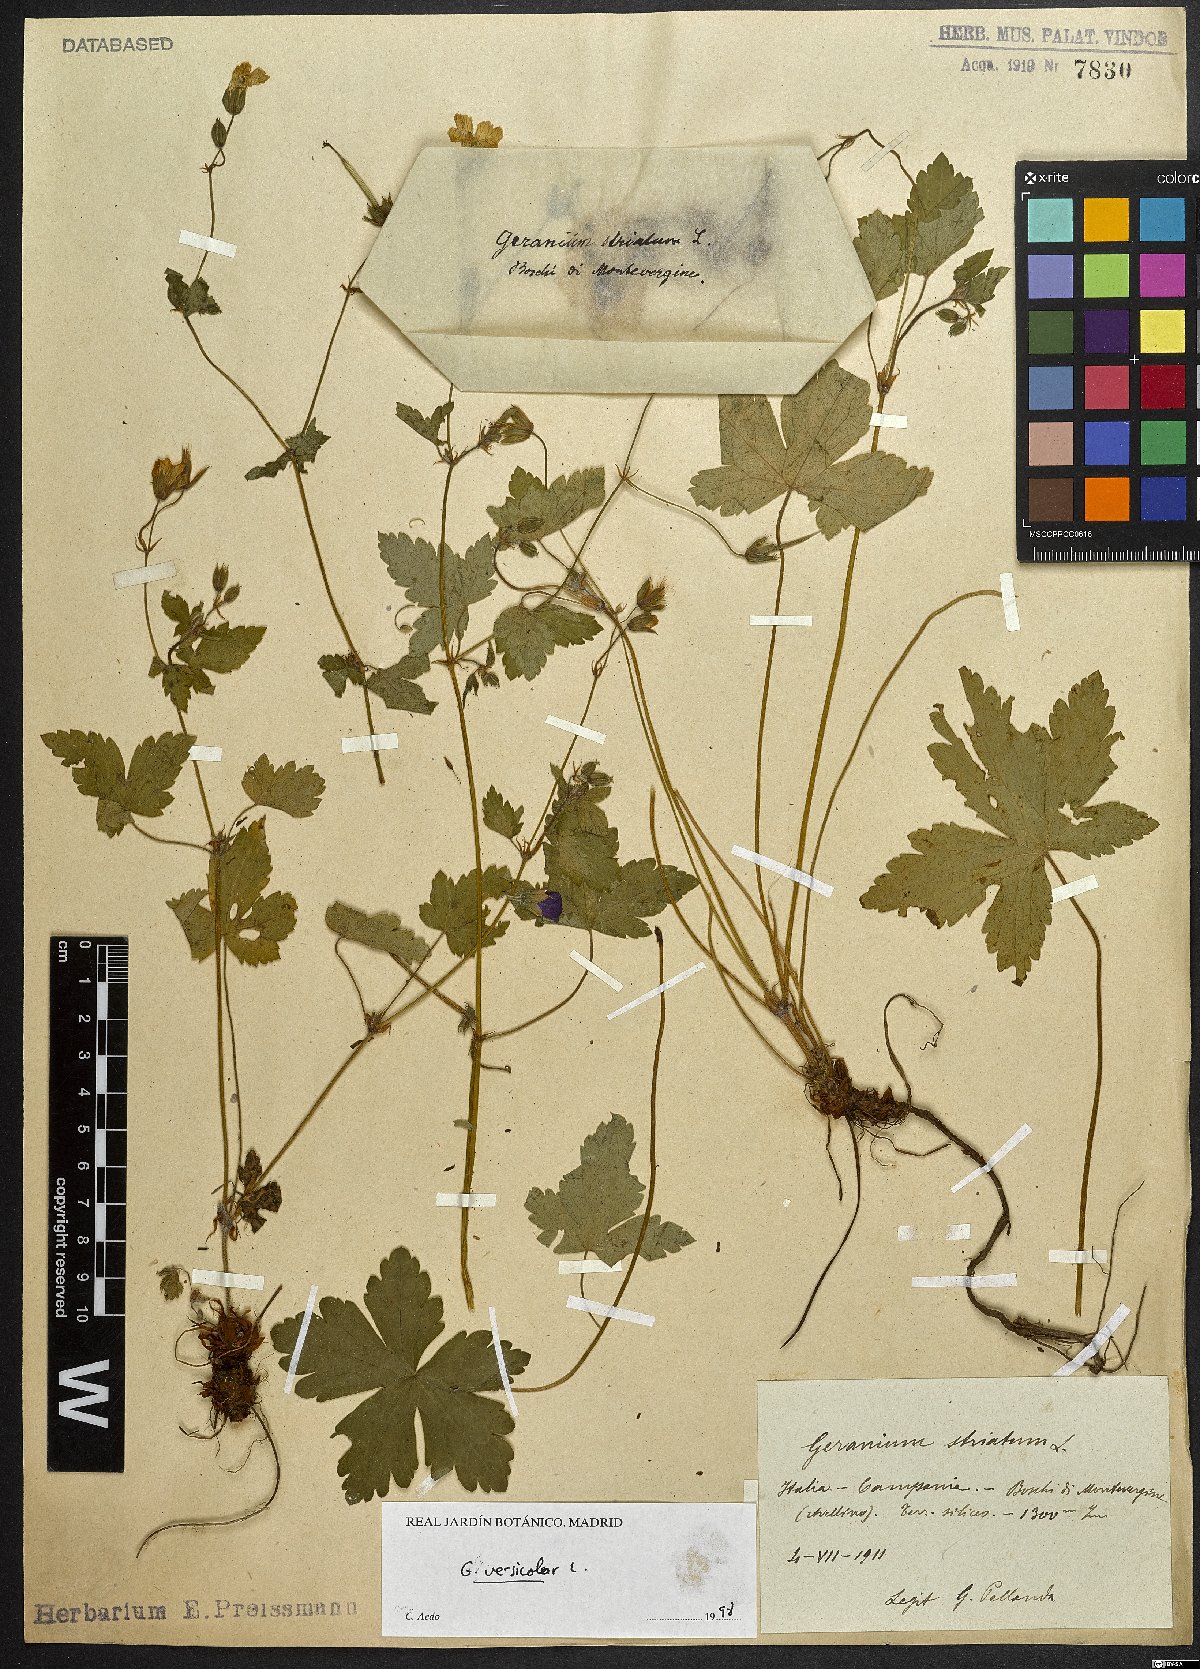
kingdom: Plantae
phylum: Tracheophyta
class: Magnoliopsida
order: Geraniales
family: Geraniaceae
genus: Geranium
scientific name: Geranium versicolor
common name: Pencilled crane's-bill
